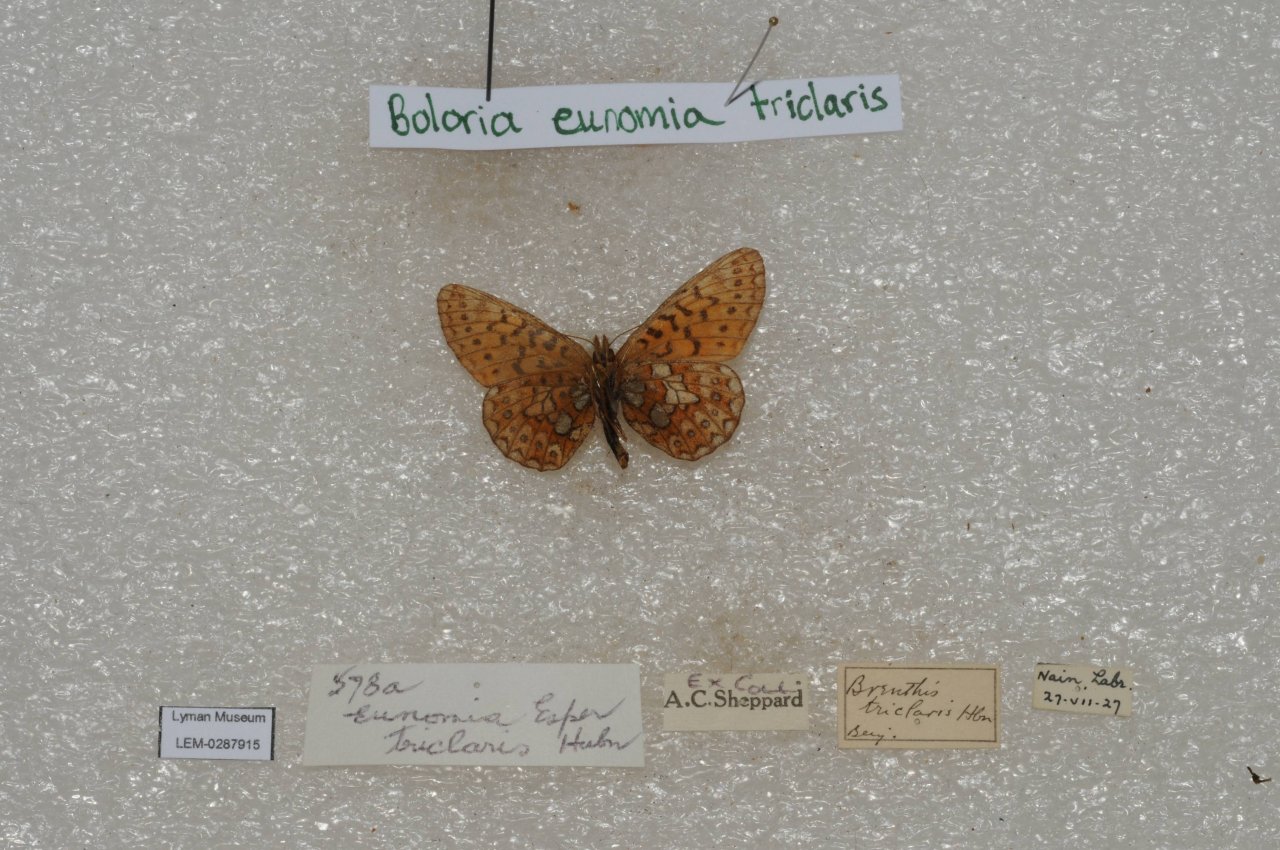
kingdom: Animalia
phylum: Arthropoda
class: Insecta
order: Lepidoptera
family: Nymphalidae
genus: Boloria
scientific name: Boloria eunomia
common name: Bog Fritillary
